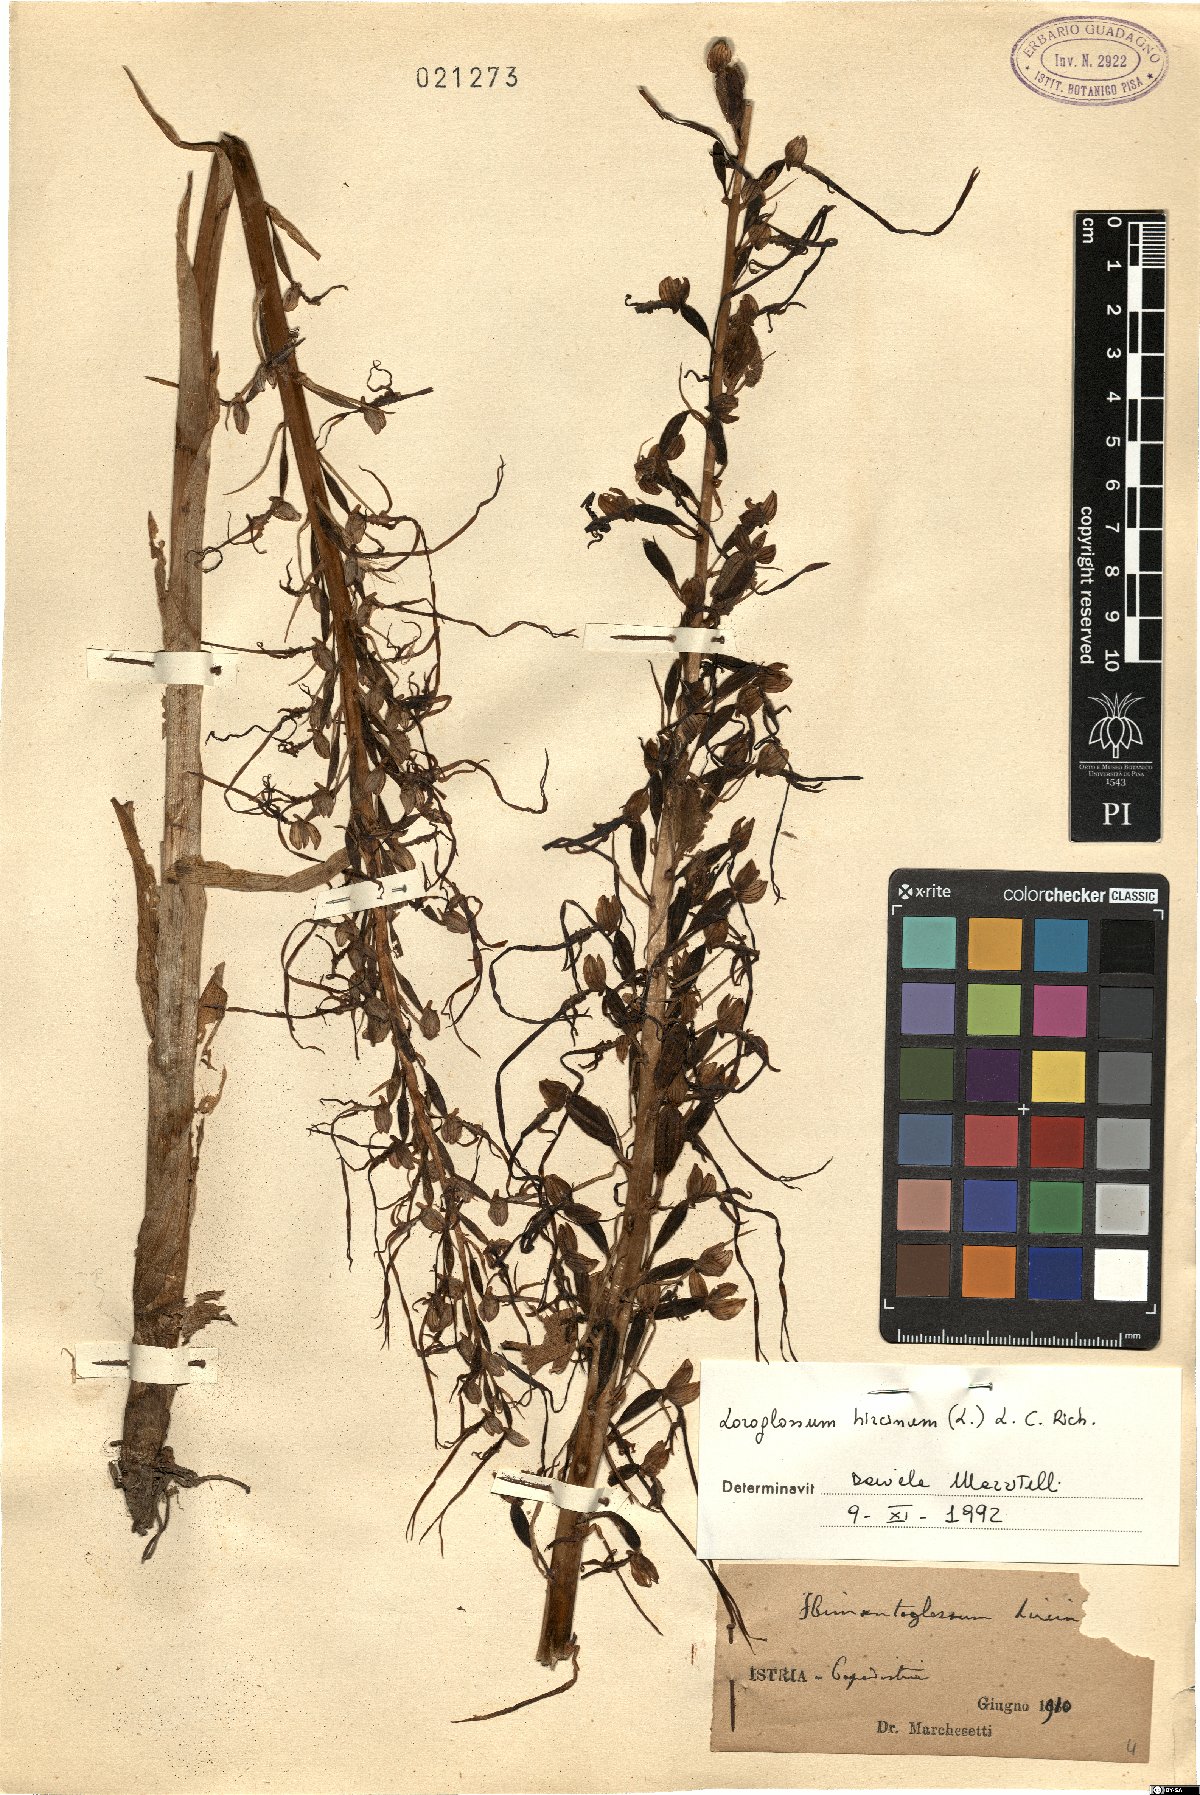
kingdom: Plantae
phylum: Tracheophyta
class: Liliopsida
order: Asparagales
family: Orchidaceae
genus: Himantoglossum
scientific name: Himantoglossum hircinum
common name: Lizard orchid
